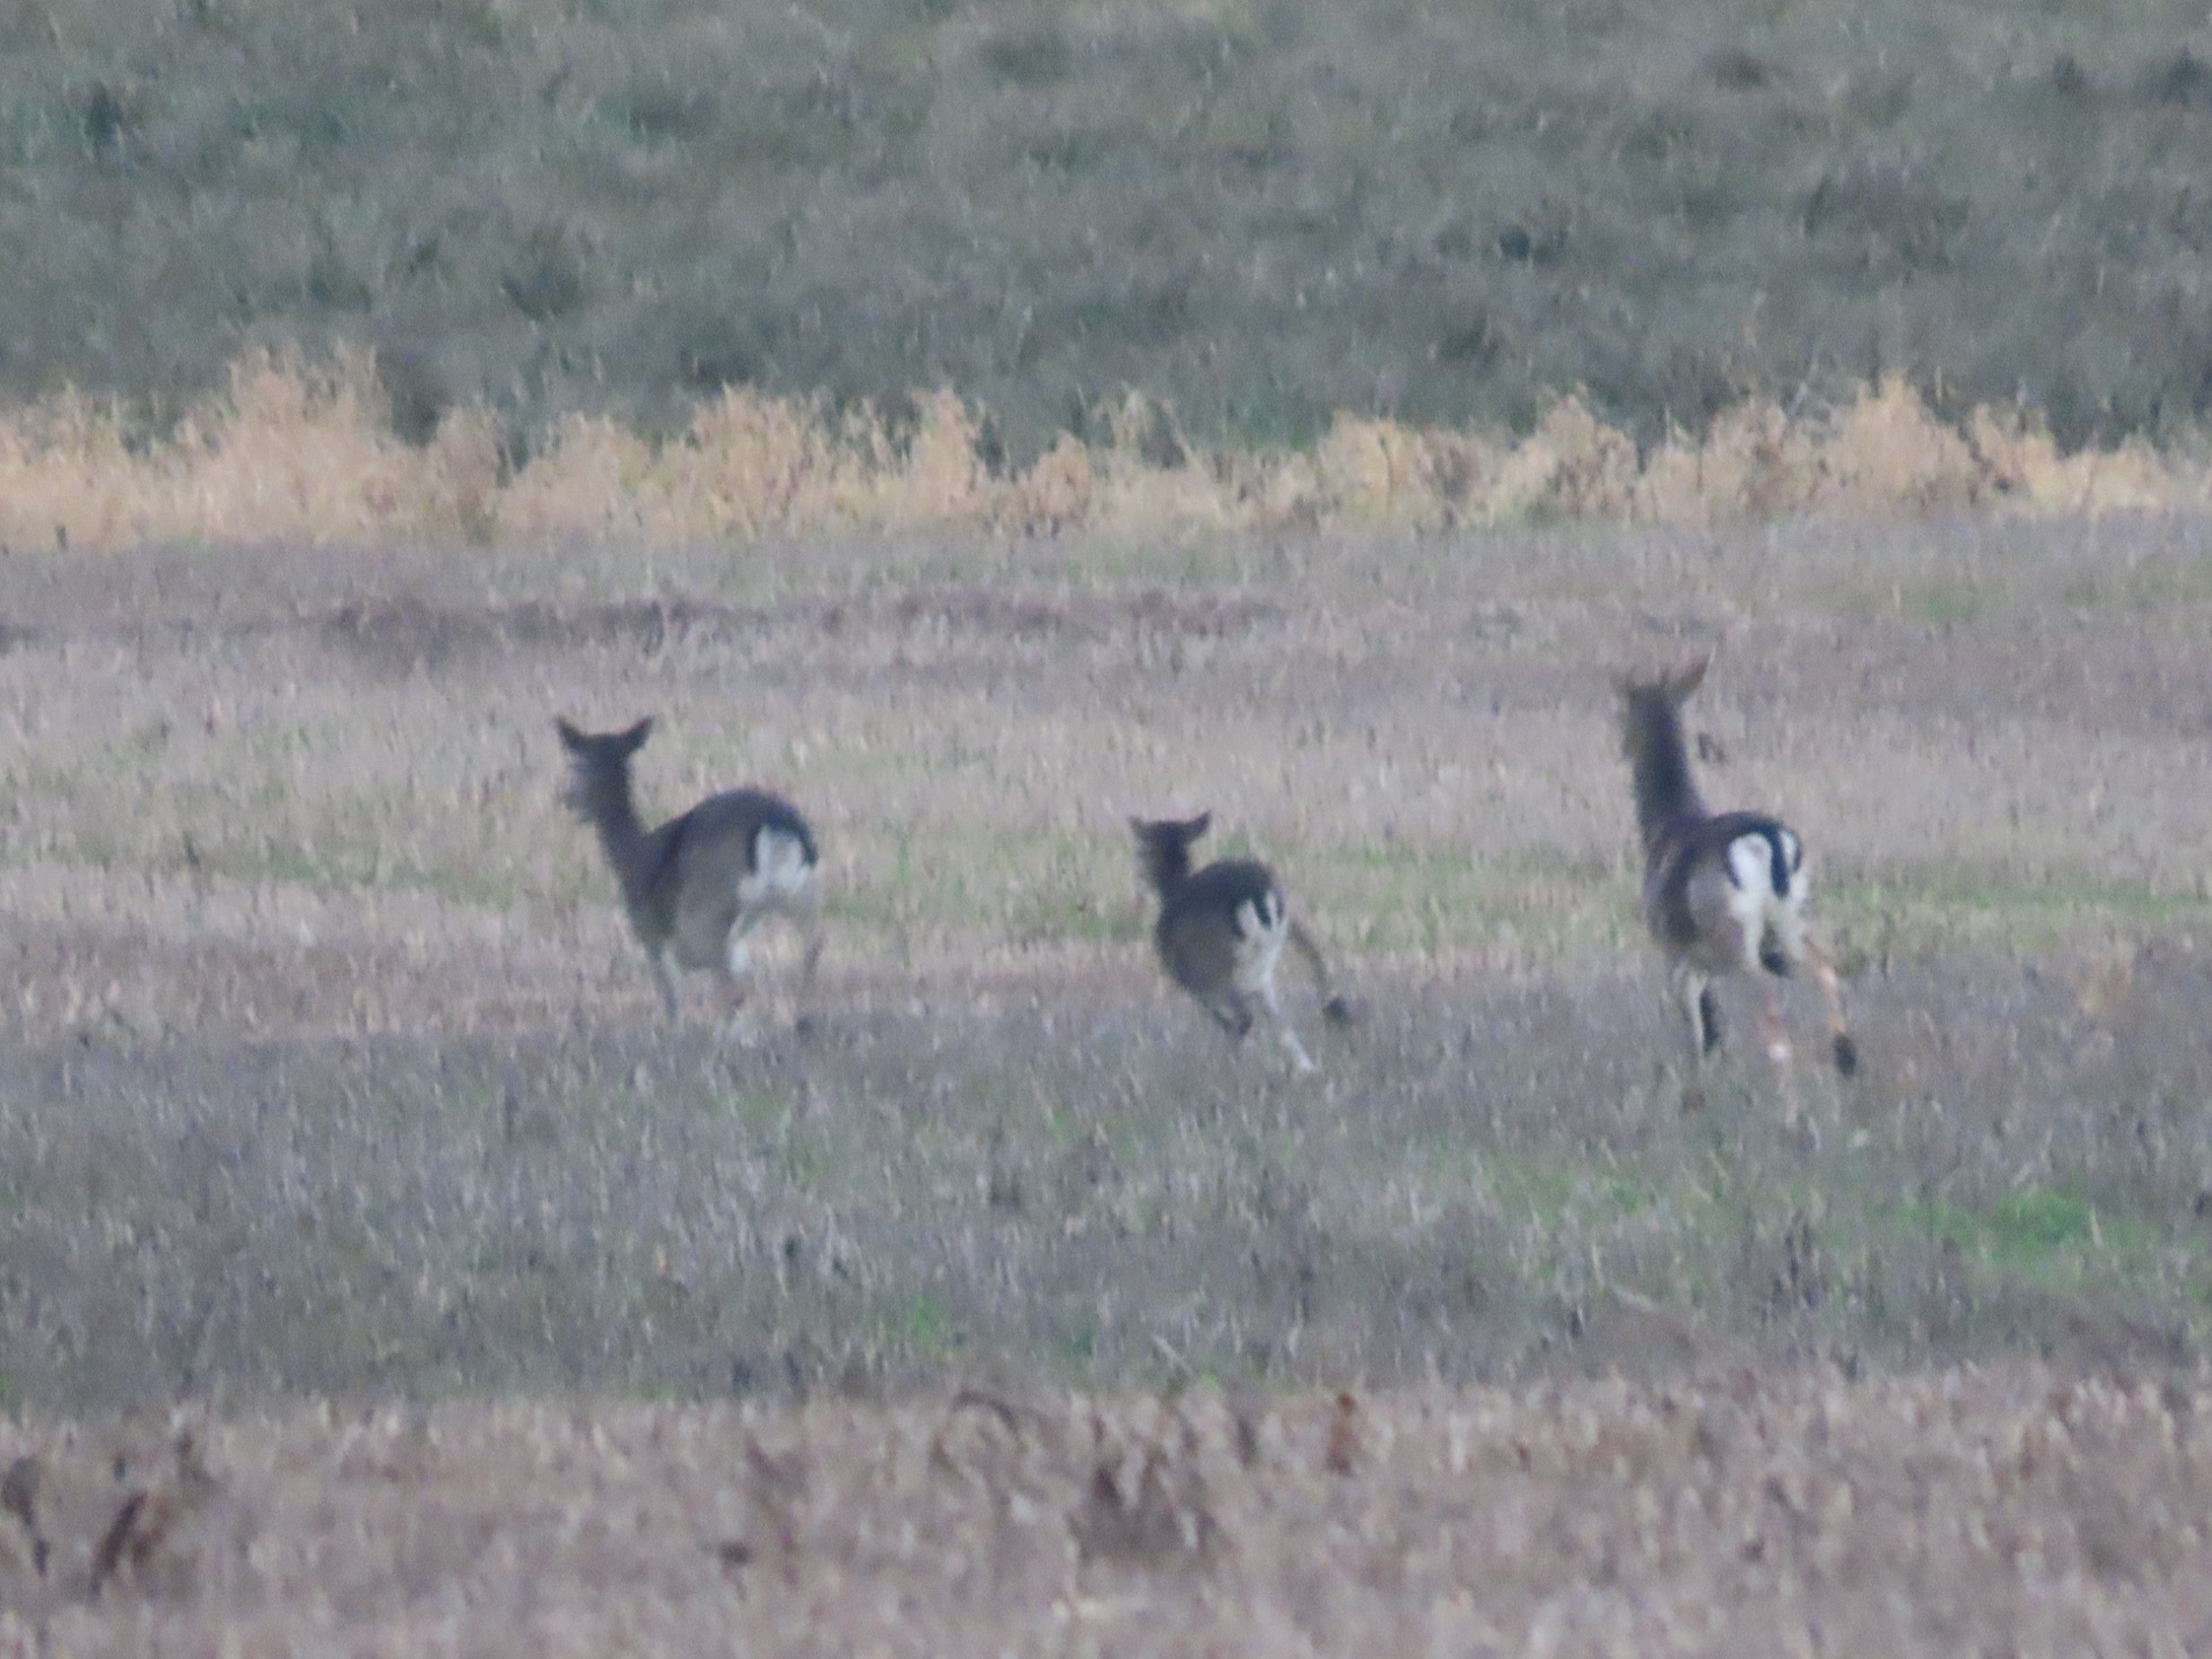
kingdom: Animalia
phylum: Chordata
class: Mammalia
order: Artiodactyla
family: Cervidae
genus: Dama
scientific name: Dama dama
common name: Dådyr
